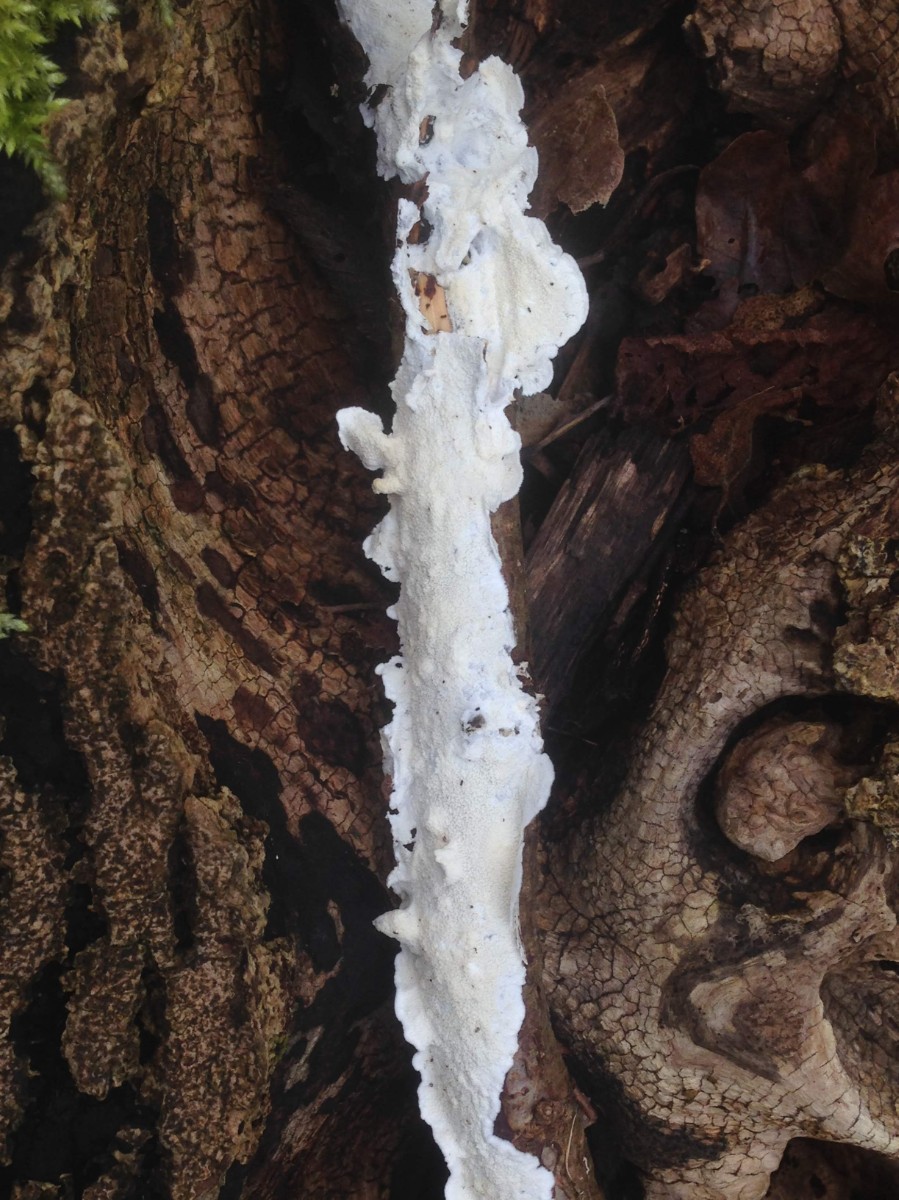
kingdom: Fungi
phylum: Basidiomycota
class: Agaricomycetes
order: Polyporales
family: Irpicaceae
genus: Byssomerulius
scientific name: Byssomerulius corium
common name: læder-åresvamp
